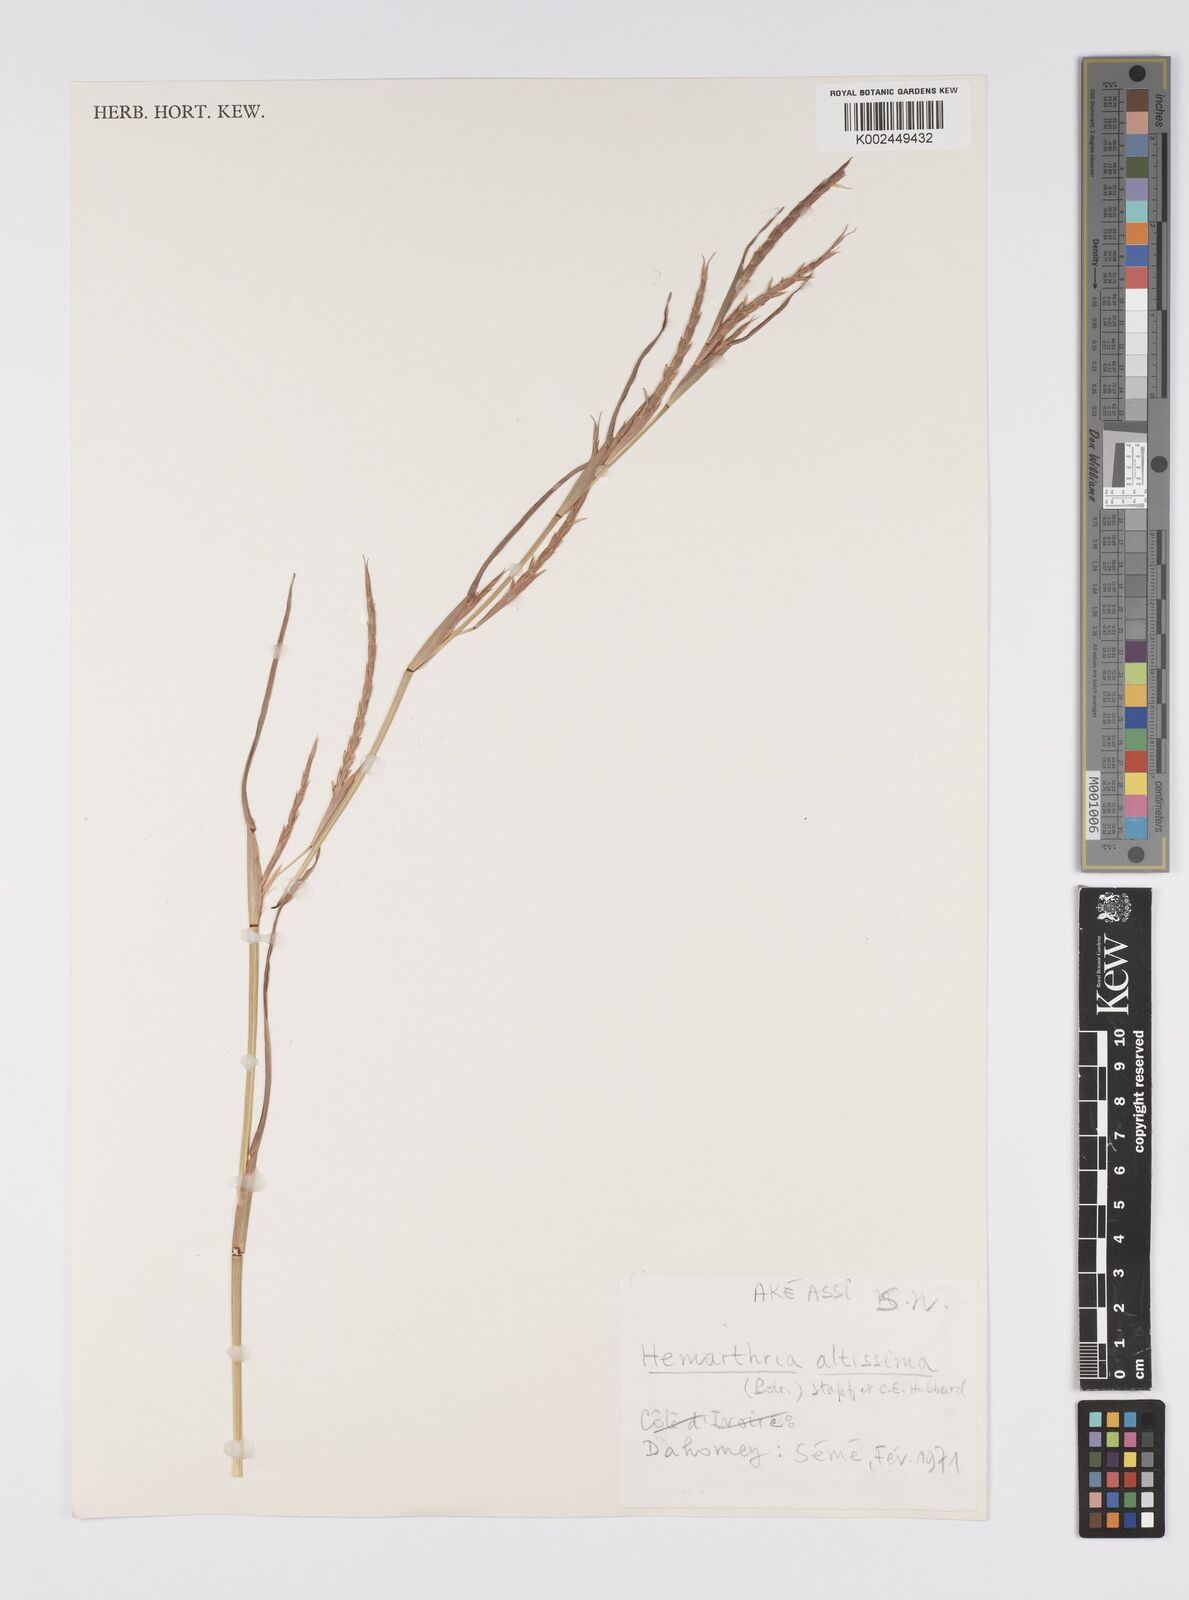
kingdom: Plantae
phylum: Tracheophyta
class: Liliopsida
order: Poales
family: Poaceae
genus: Hemarthria
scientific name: Hemarthria altissima
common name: African jointgrass
